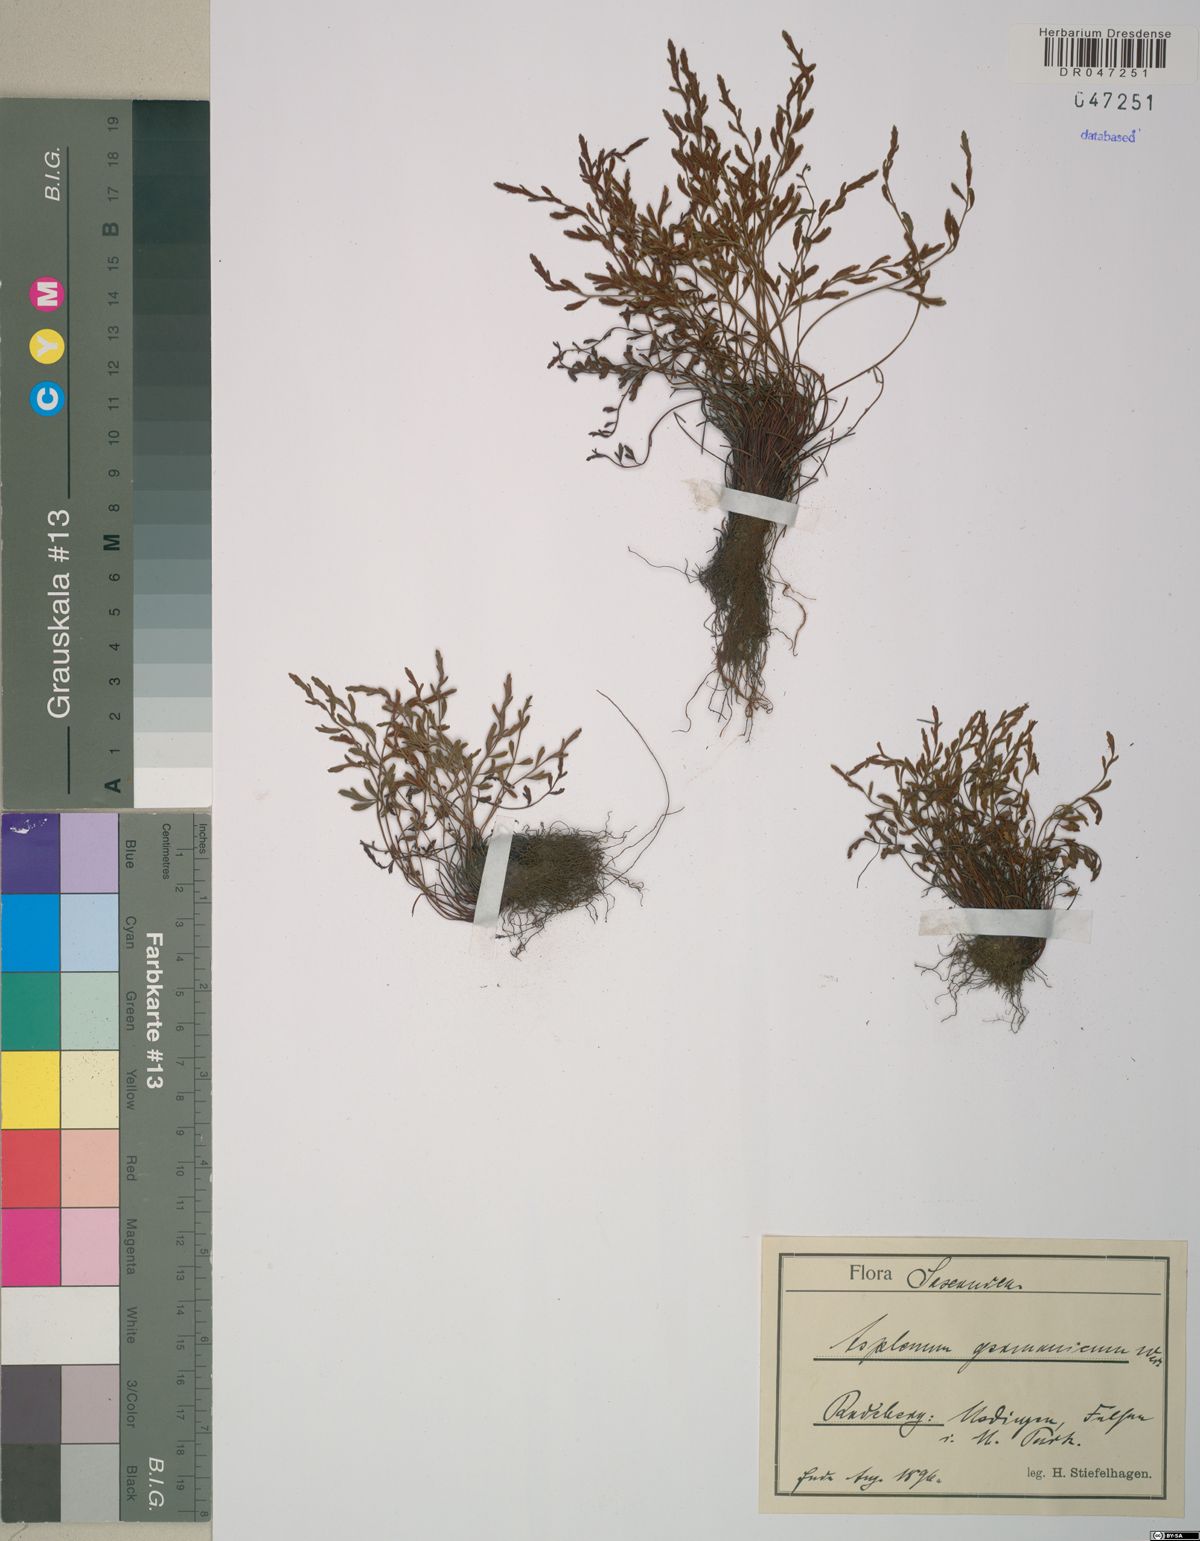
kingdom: Plantae
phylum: Tracheophyta
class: Polypodiopsida
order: Polypodiales
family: Aspleniaceae
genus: Asplenium
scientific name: Asplenium
